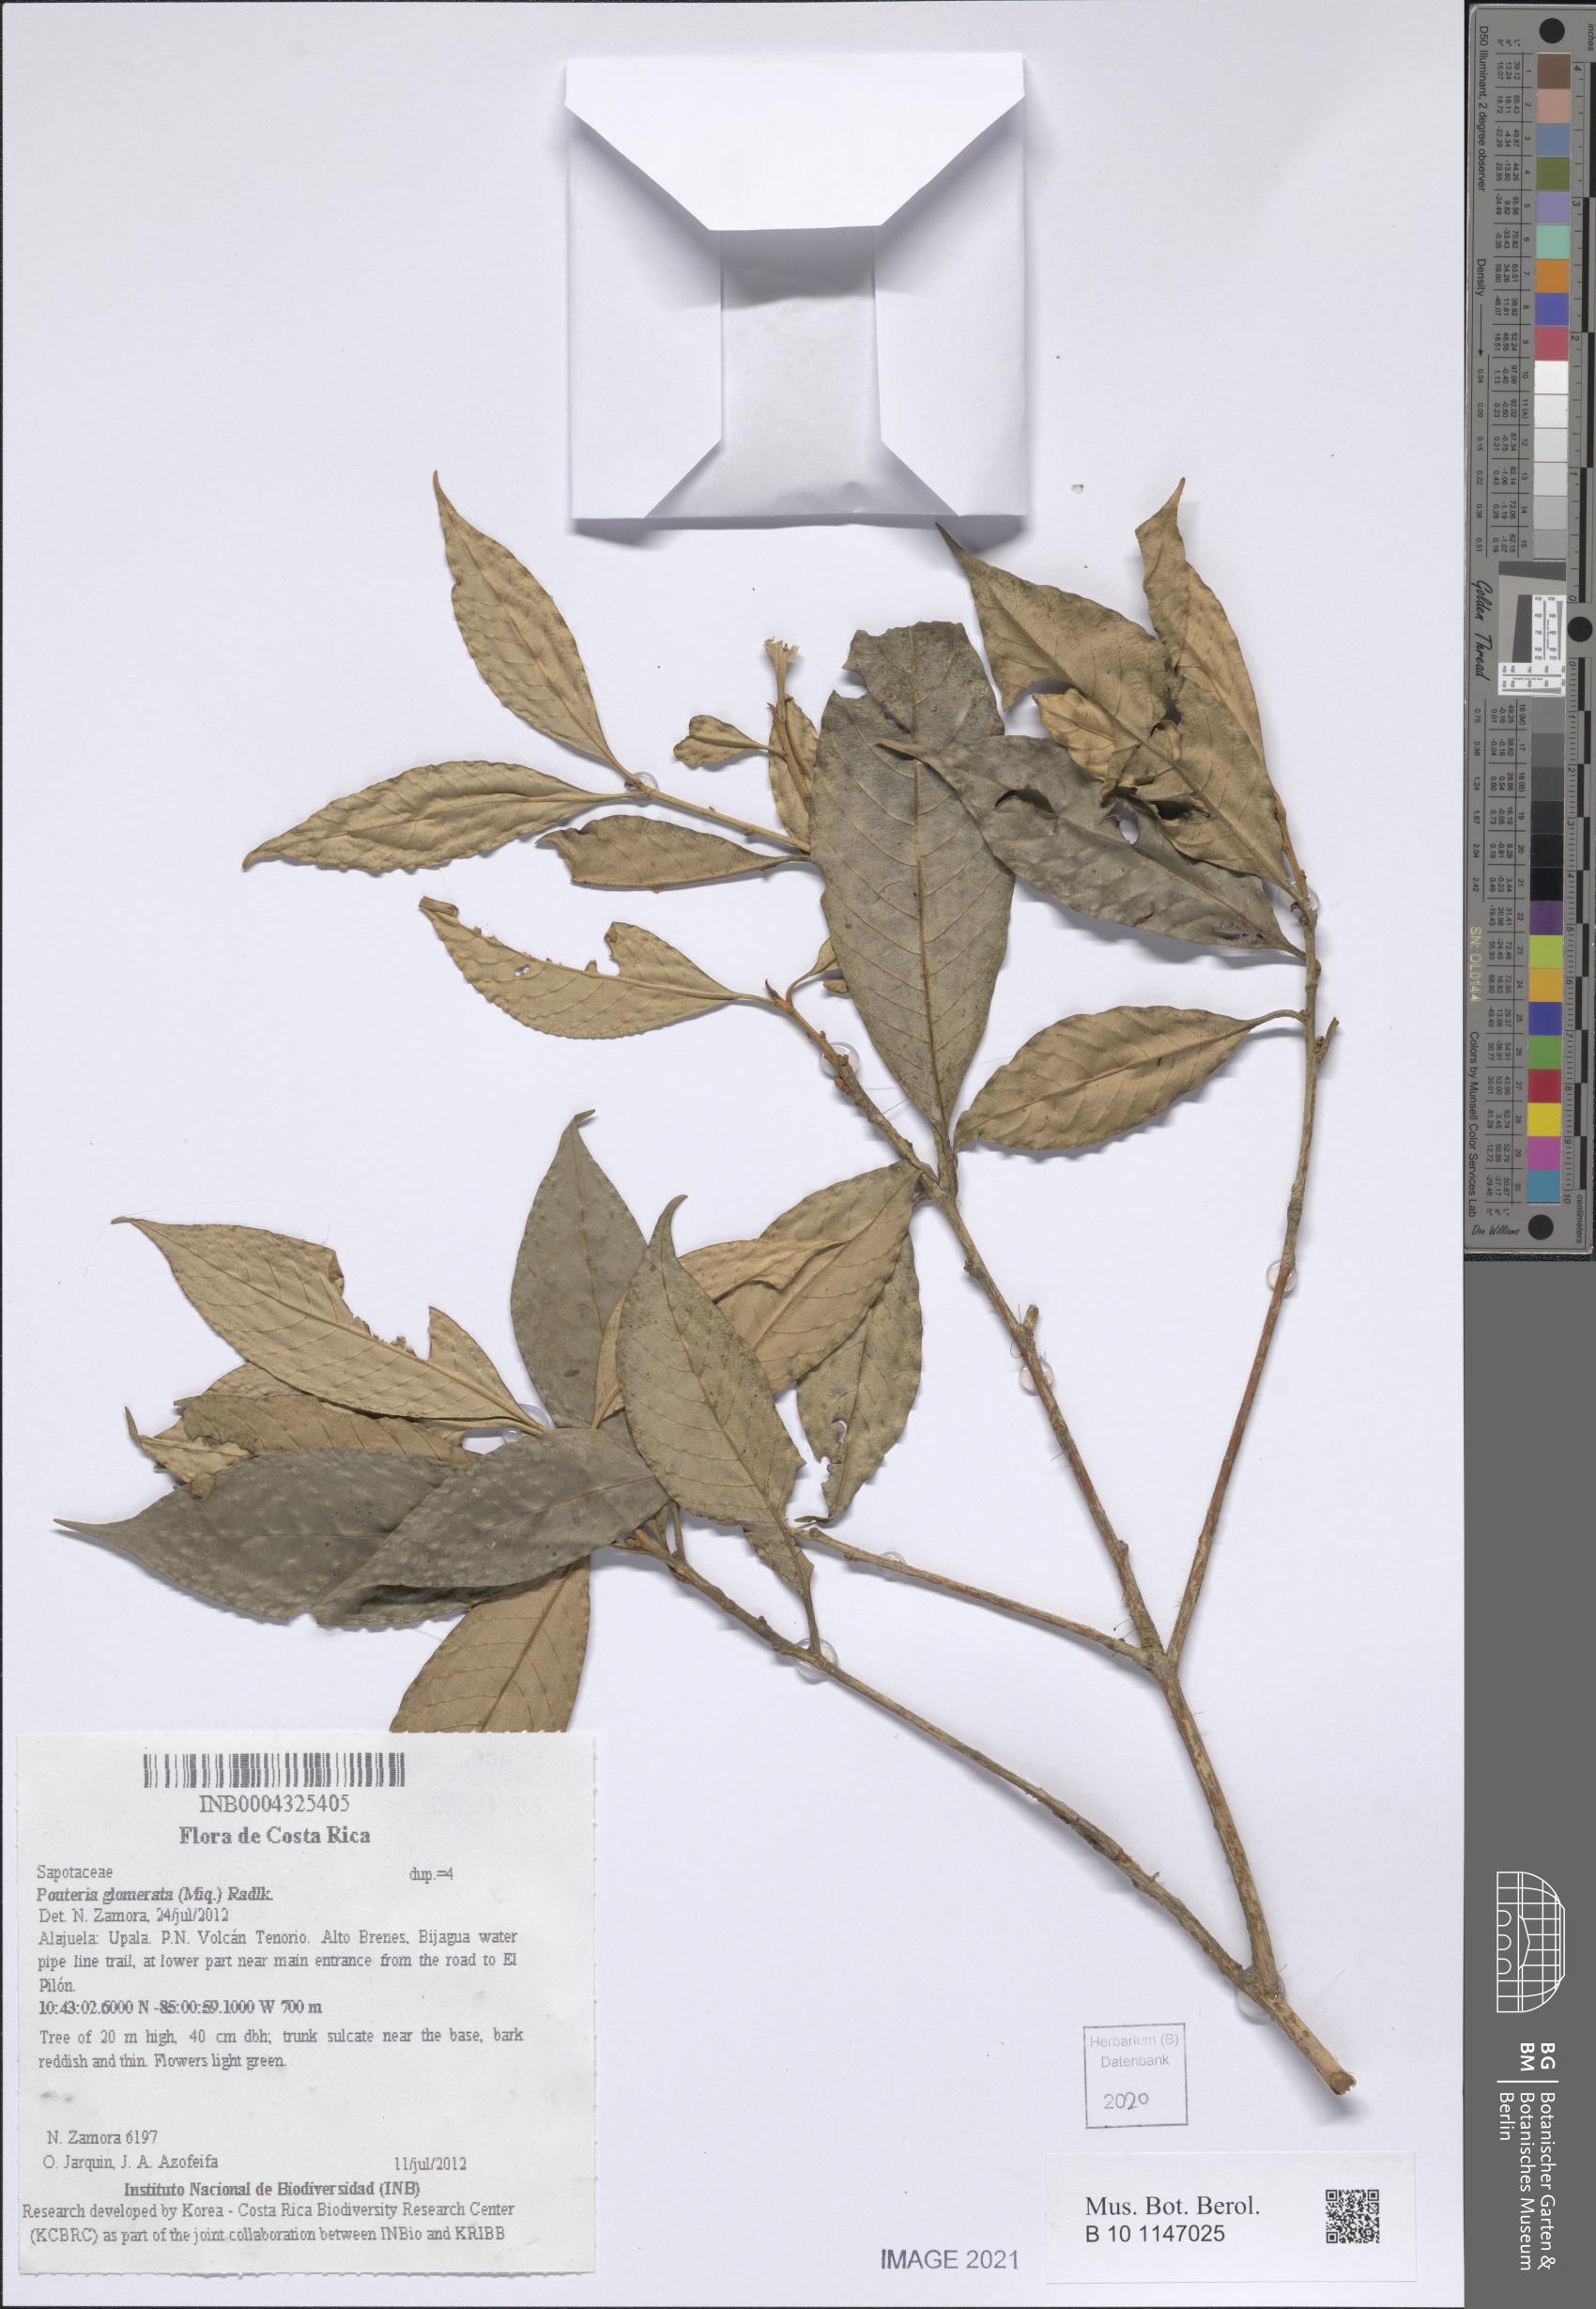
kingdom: Plantae
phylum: Tracheophyta
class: Magnoliopsida
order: Ericales
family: Sapotaceae
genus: Pouteria
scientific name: Pouteria glomerata
